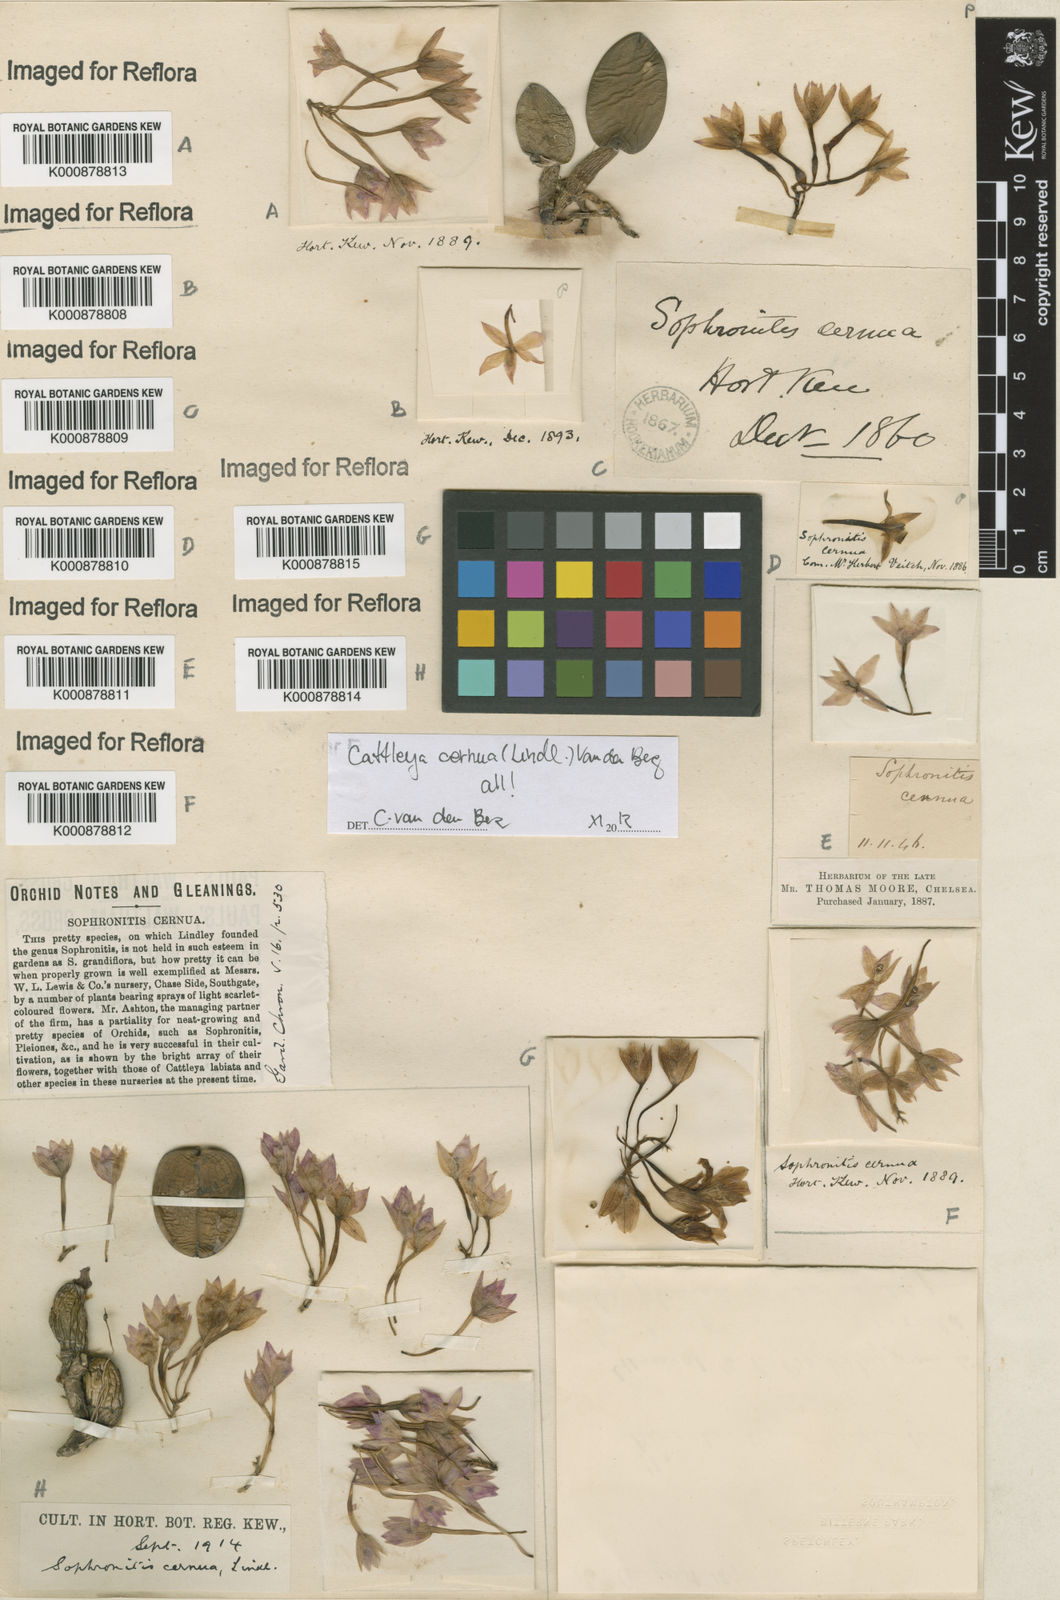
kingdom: Plantae
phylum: Tracheophyta
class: Liliopsida
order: Asparagales
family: Orchidaceae
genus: Cattleya
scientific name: Cattleya
